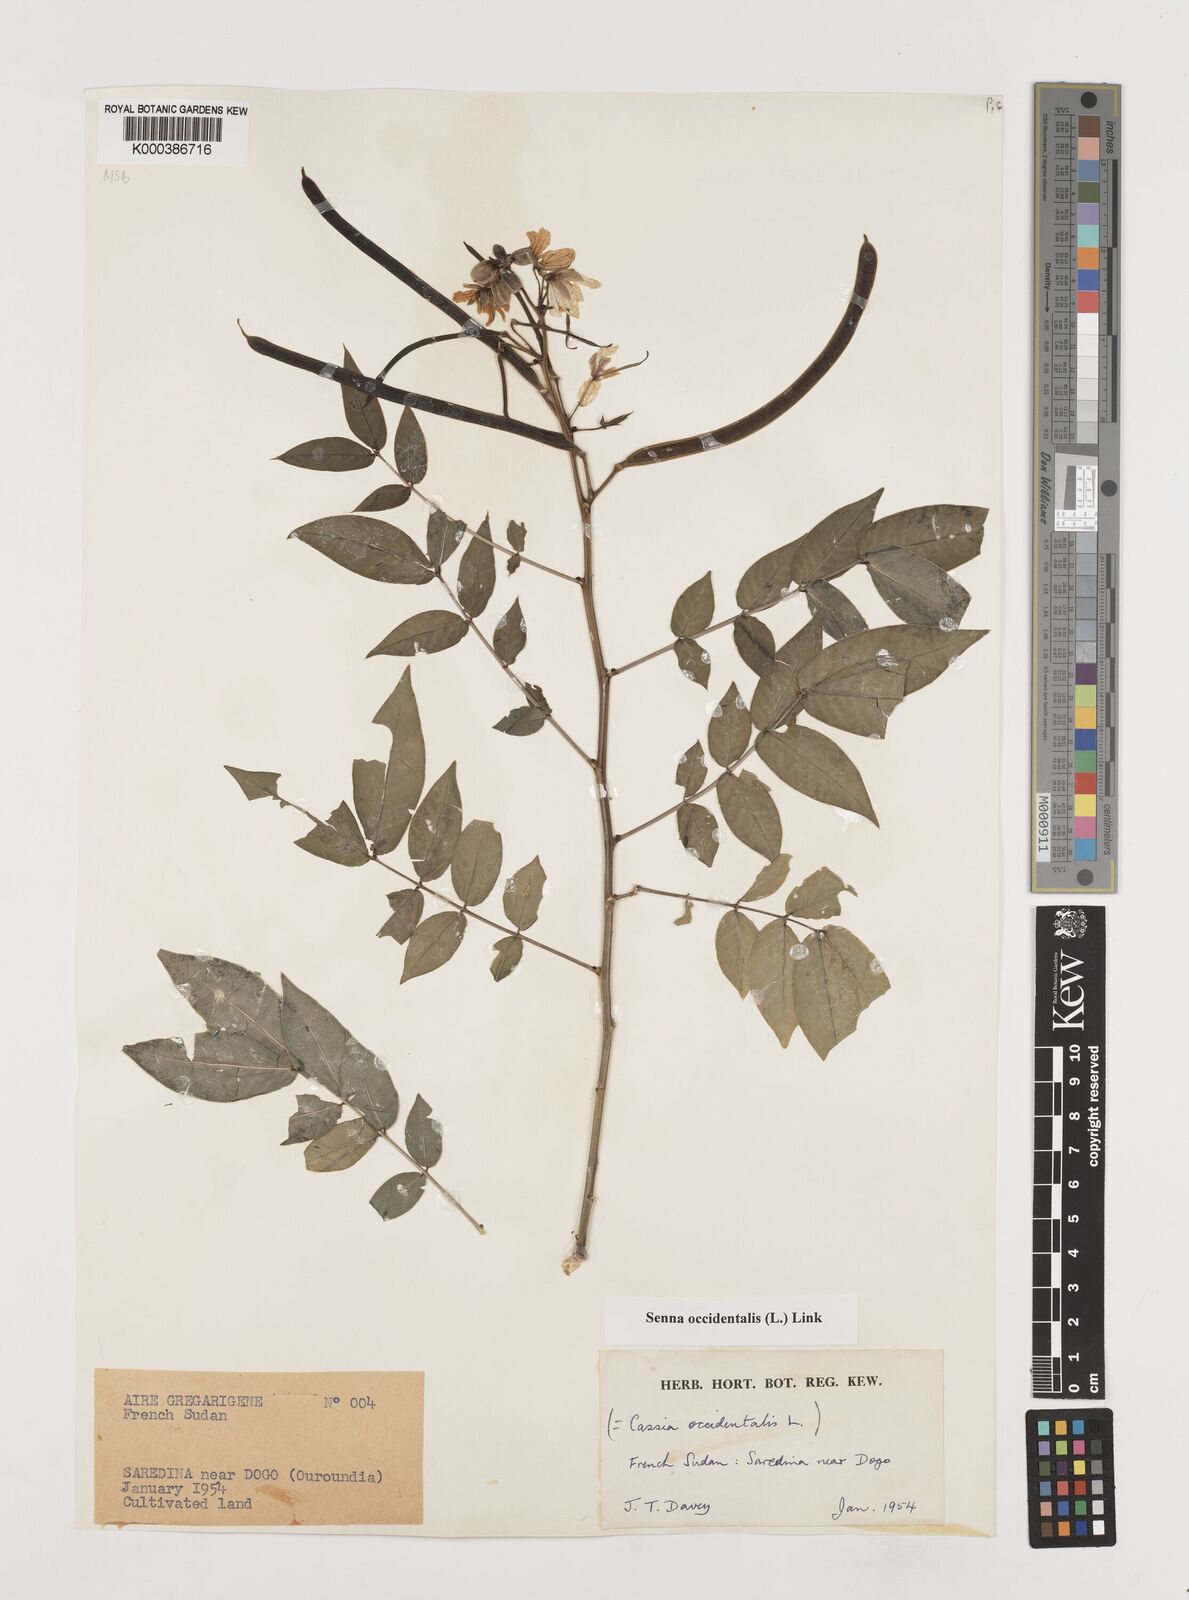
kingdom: Plantae
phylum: Tracheophyta
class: Magnoliopsida
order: Fabales
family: Fabaceae
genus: Senna
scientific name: Senna occidentalis
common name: Septicweed
